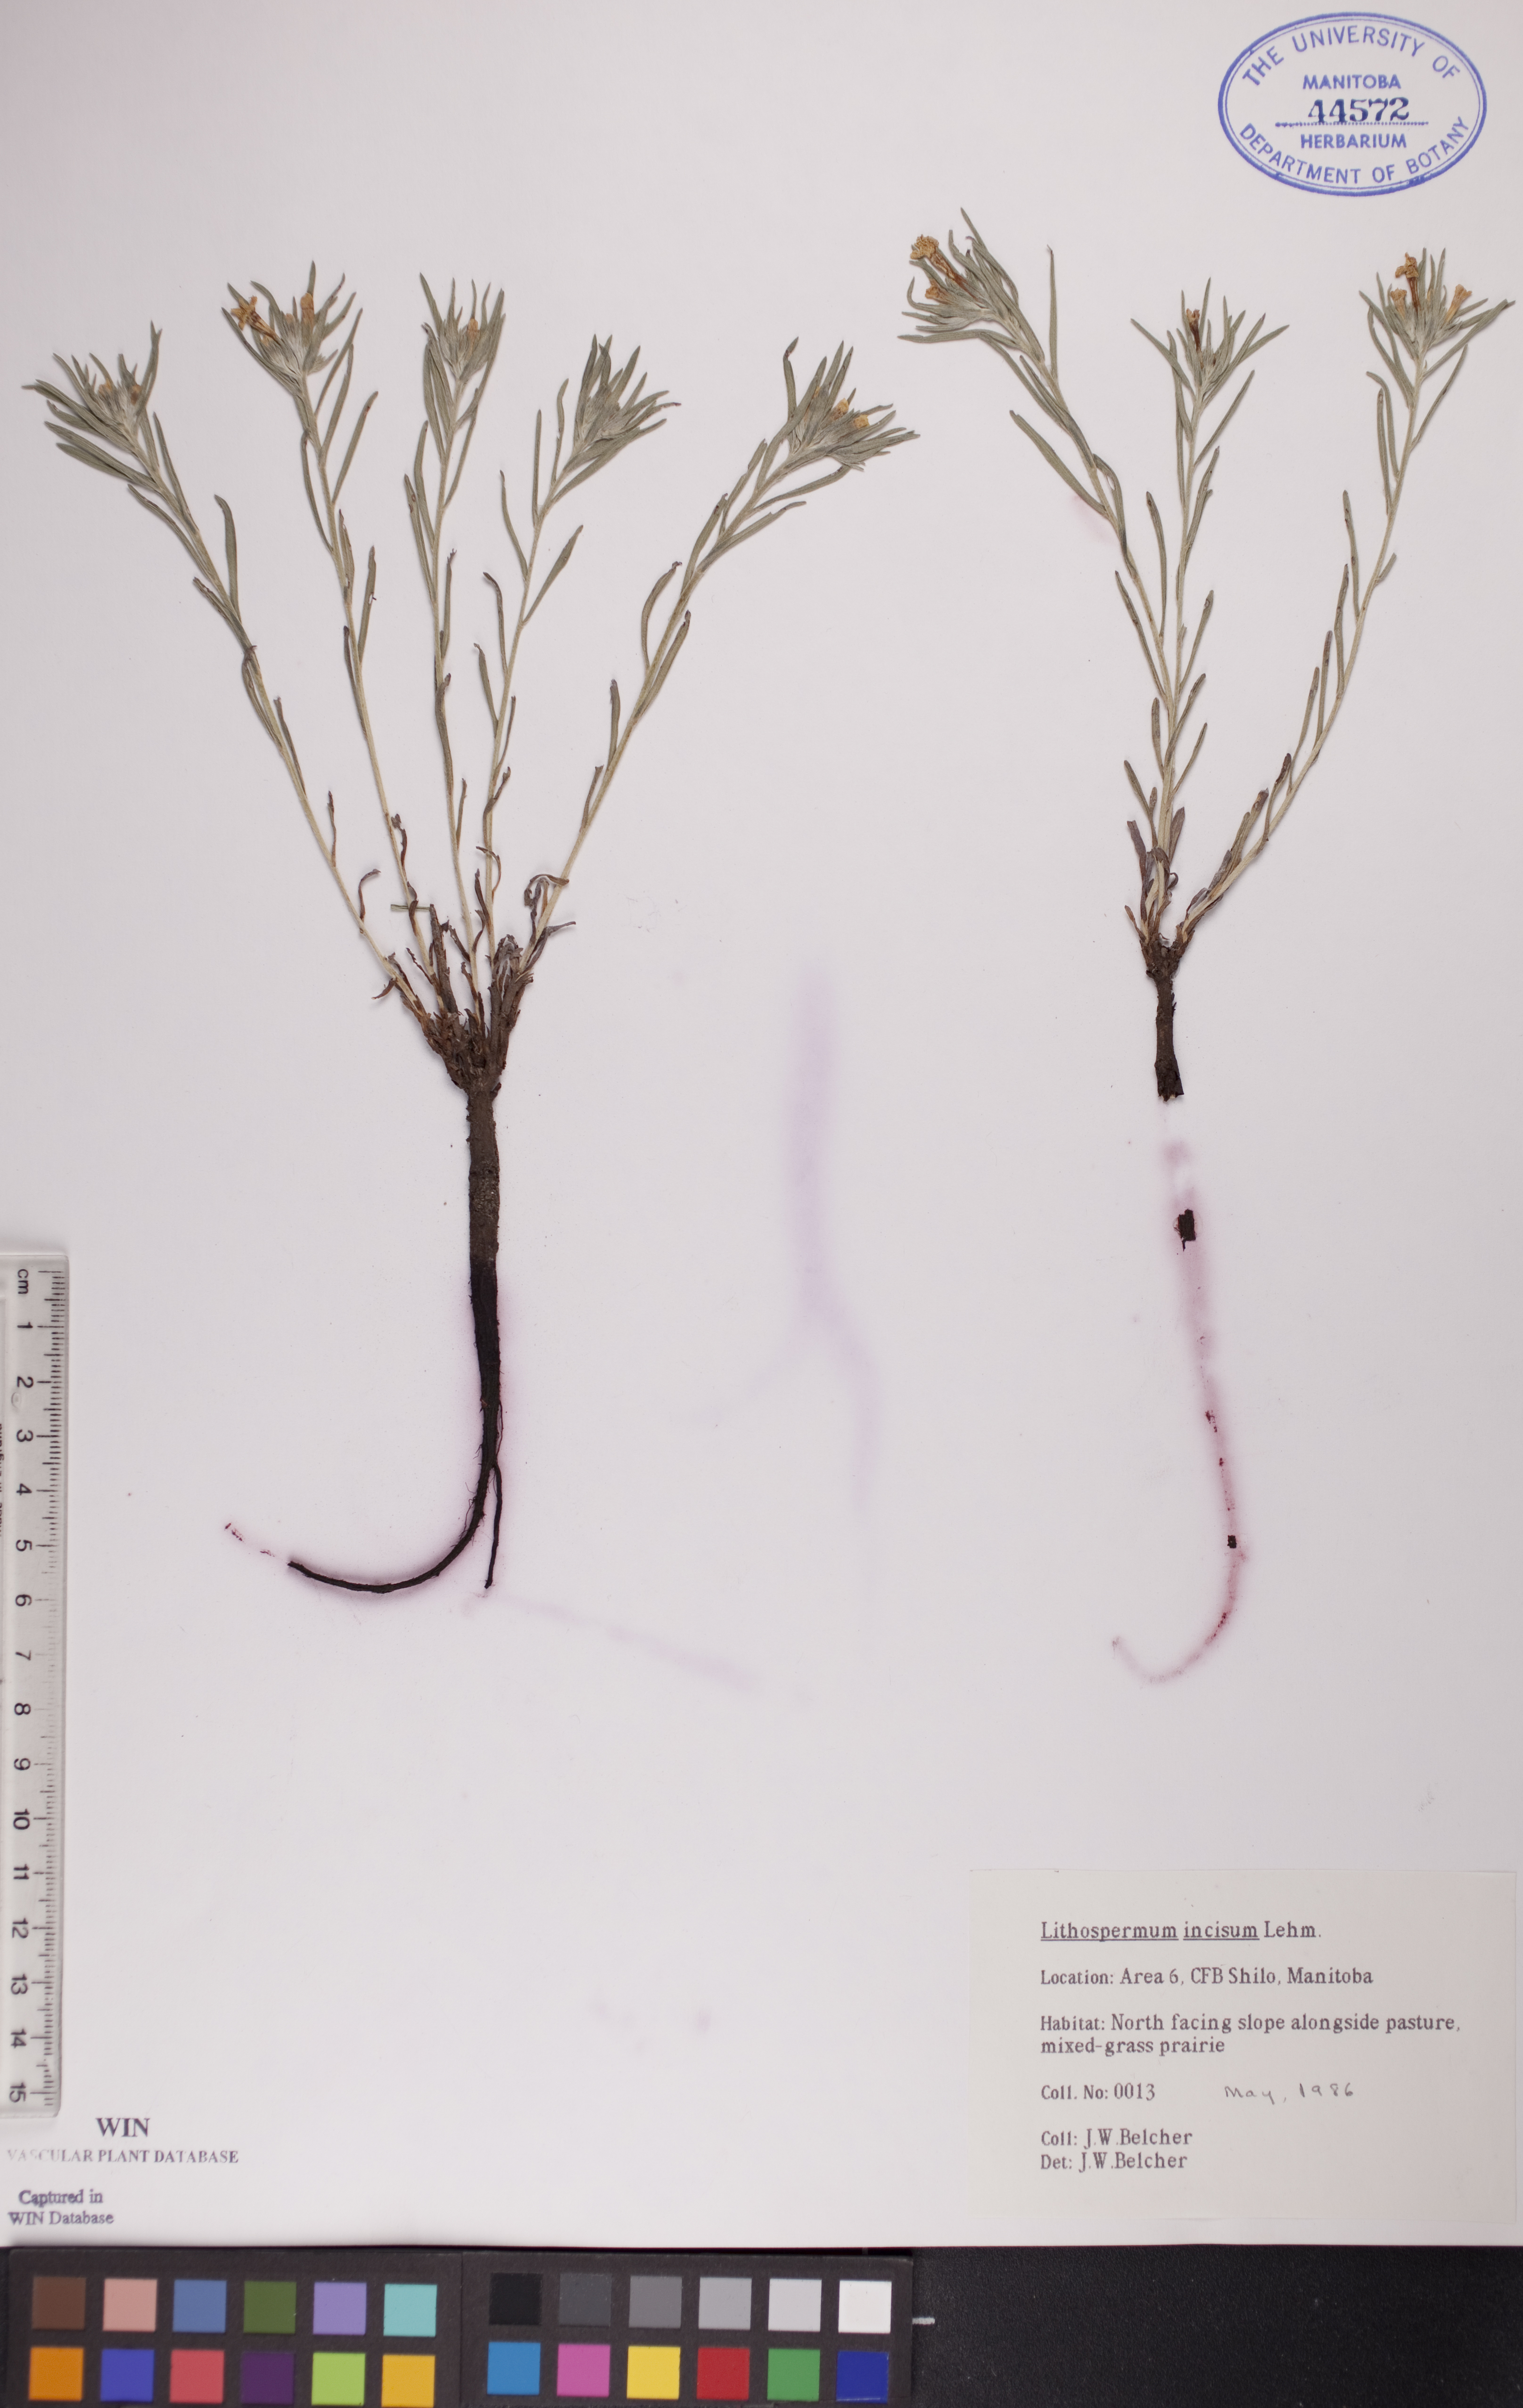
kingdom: Plantae
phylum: Tracheophyta
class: Magnoliopsida
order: Boraginales
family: Boraginaceae
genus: Lithospermum
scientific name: Lithospermum incisum
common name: Fringed gromwell
